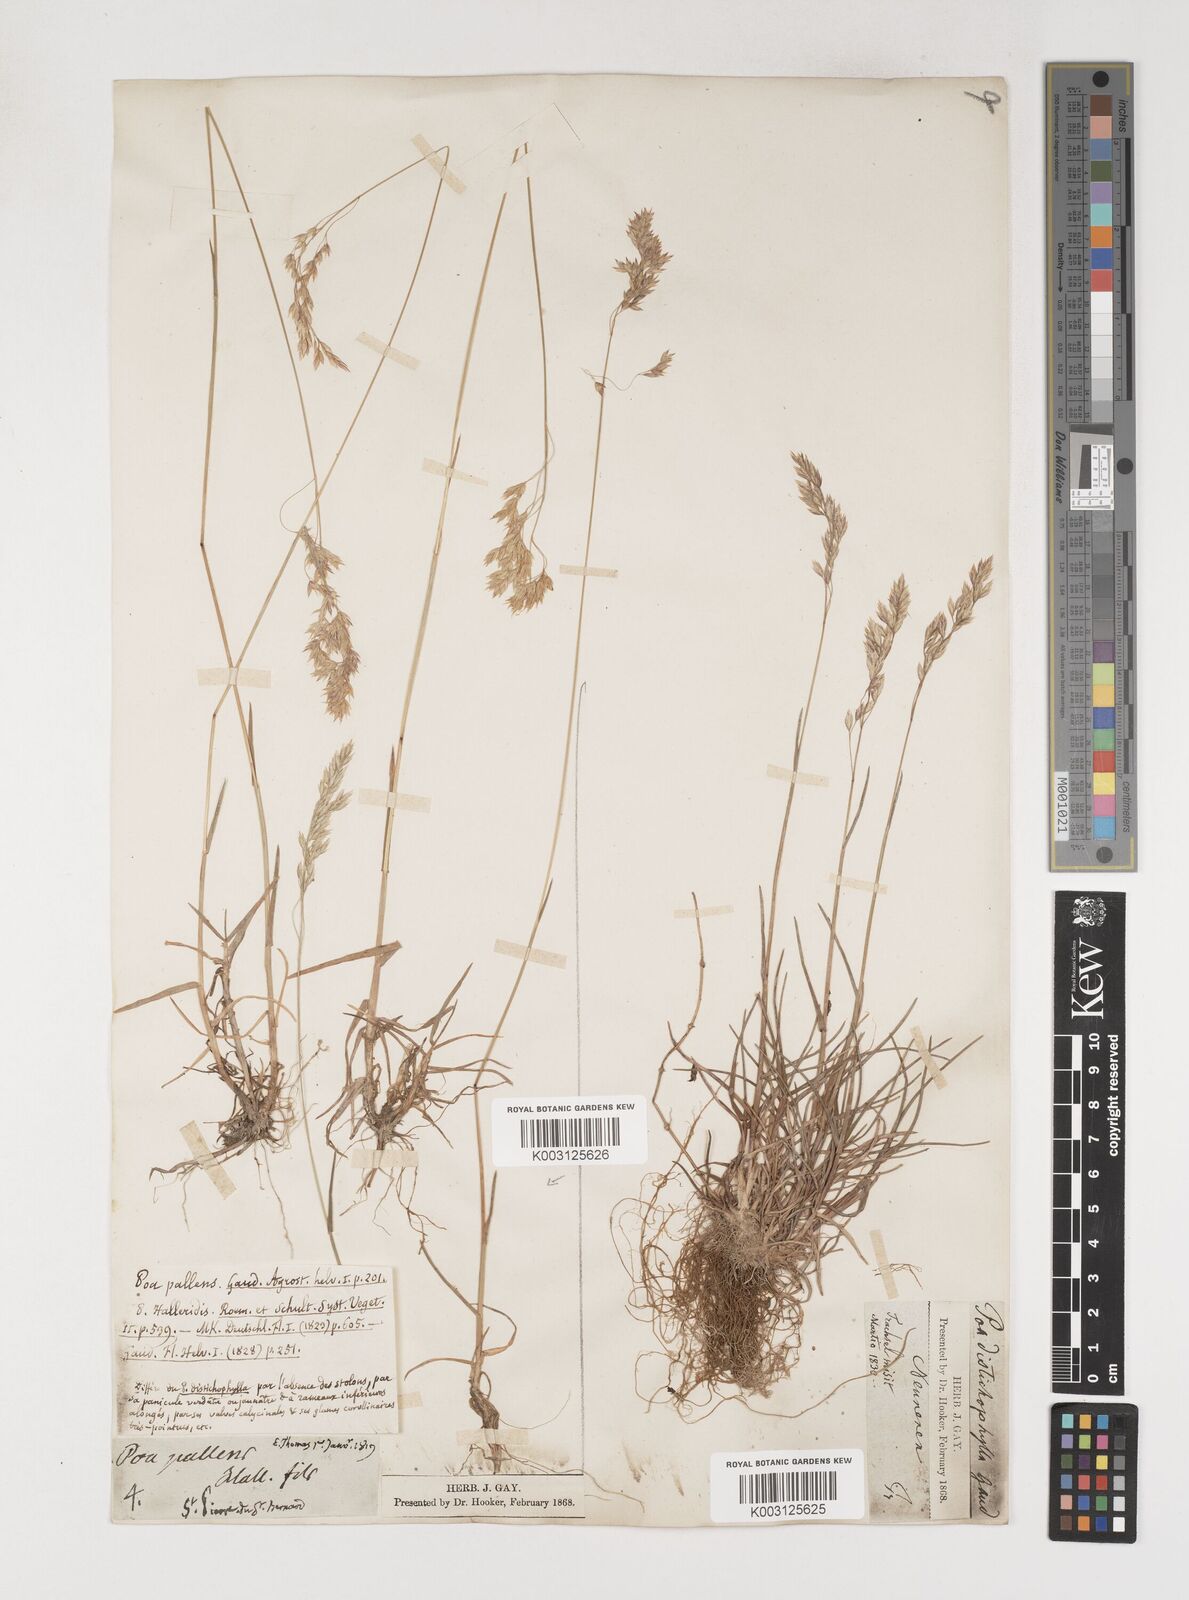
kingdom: Plantae
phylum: Tracheophyta
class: Liliopsida
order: Poales
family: Poaceae
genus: Poa
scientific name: Poa cenisia
